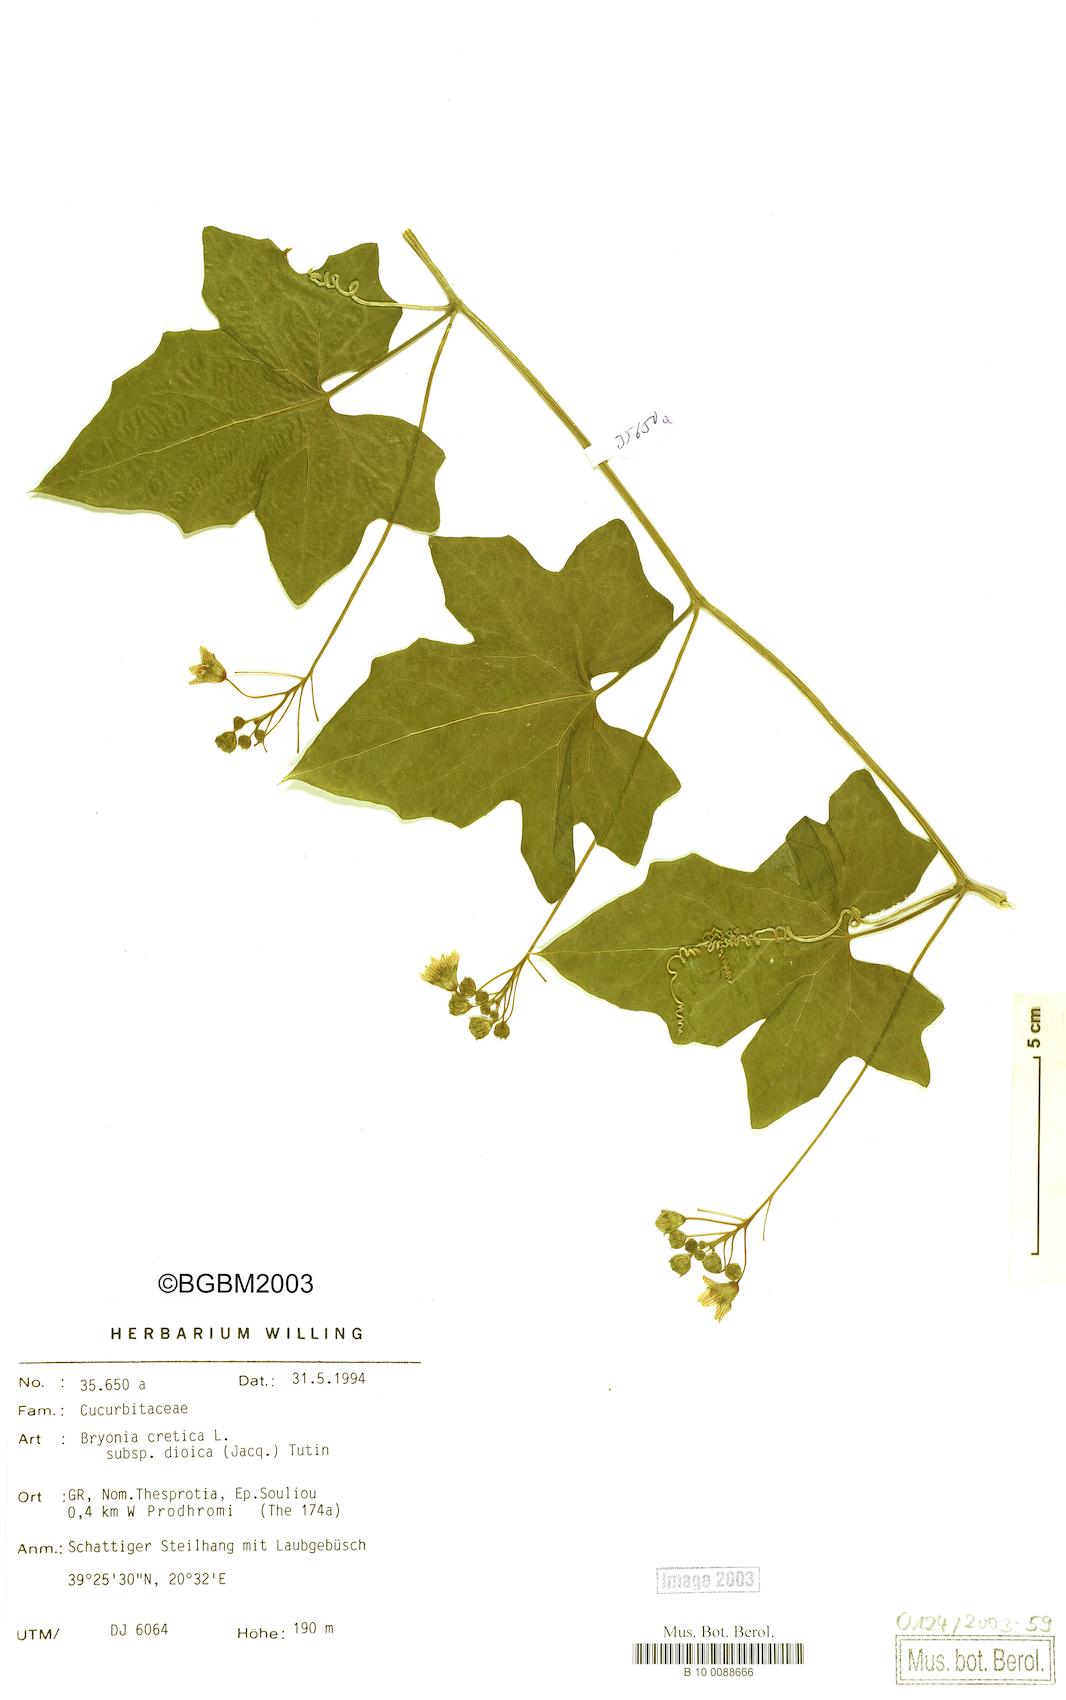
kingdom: Plantae
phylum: Tracheophyta
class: Magnoliopsida
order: Cucurbitales
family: Cucurbitaceae
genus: Bryonia
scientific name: Bryonia dioica
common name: White bryony
